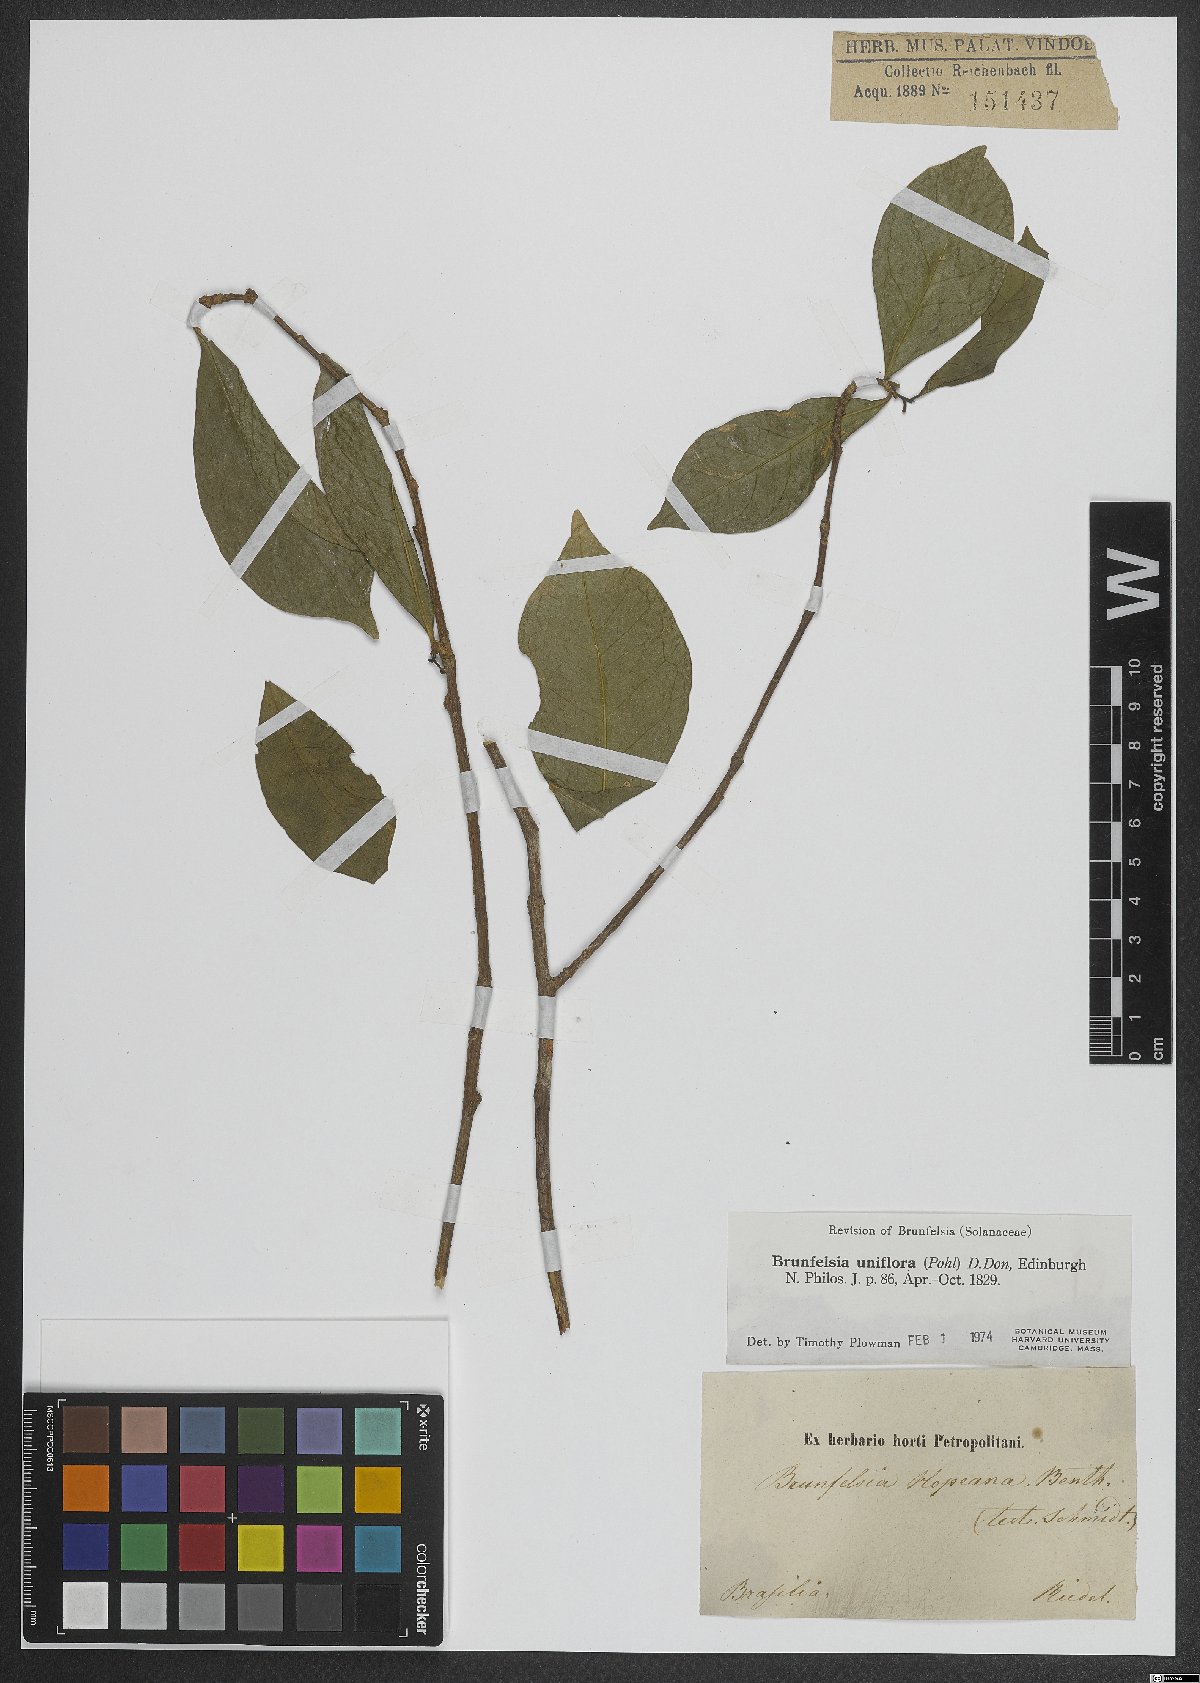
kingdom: Plantae
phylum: Tracheophyta
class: Magnoliopsida
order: Solanales
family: Solanaceae
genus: Brunfelsia
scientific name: Brunfelsia uniflora
